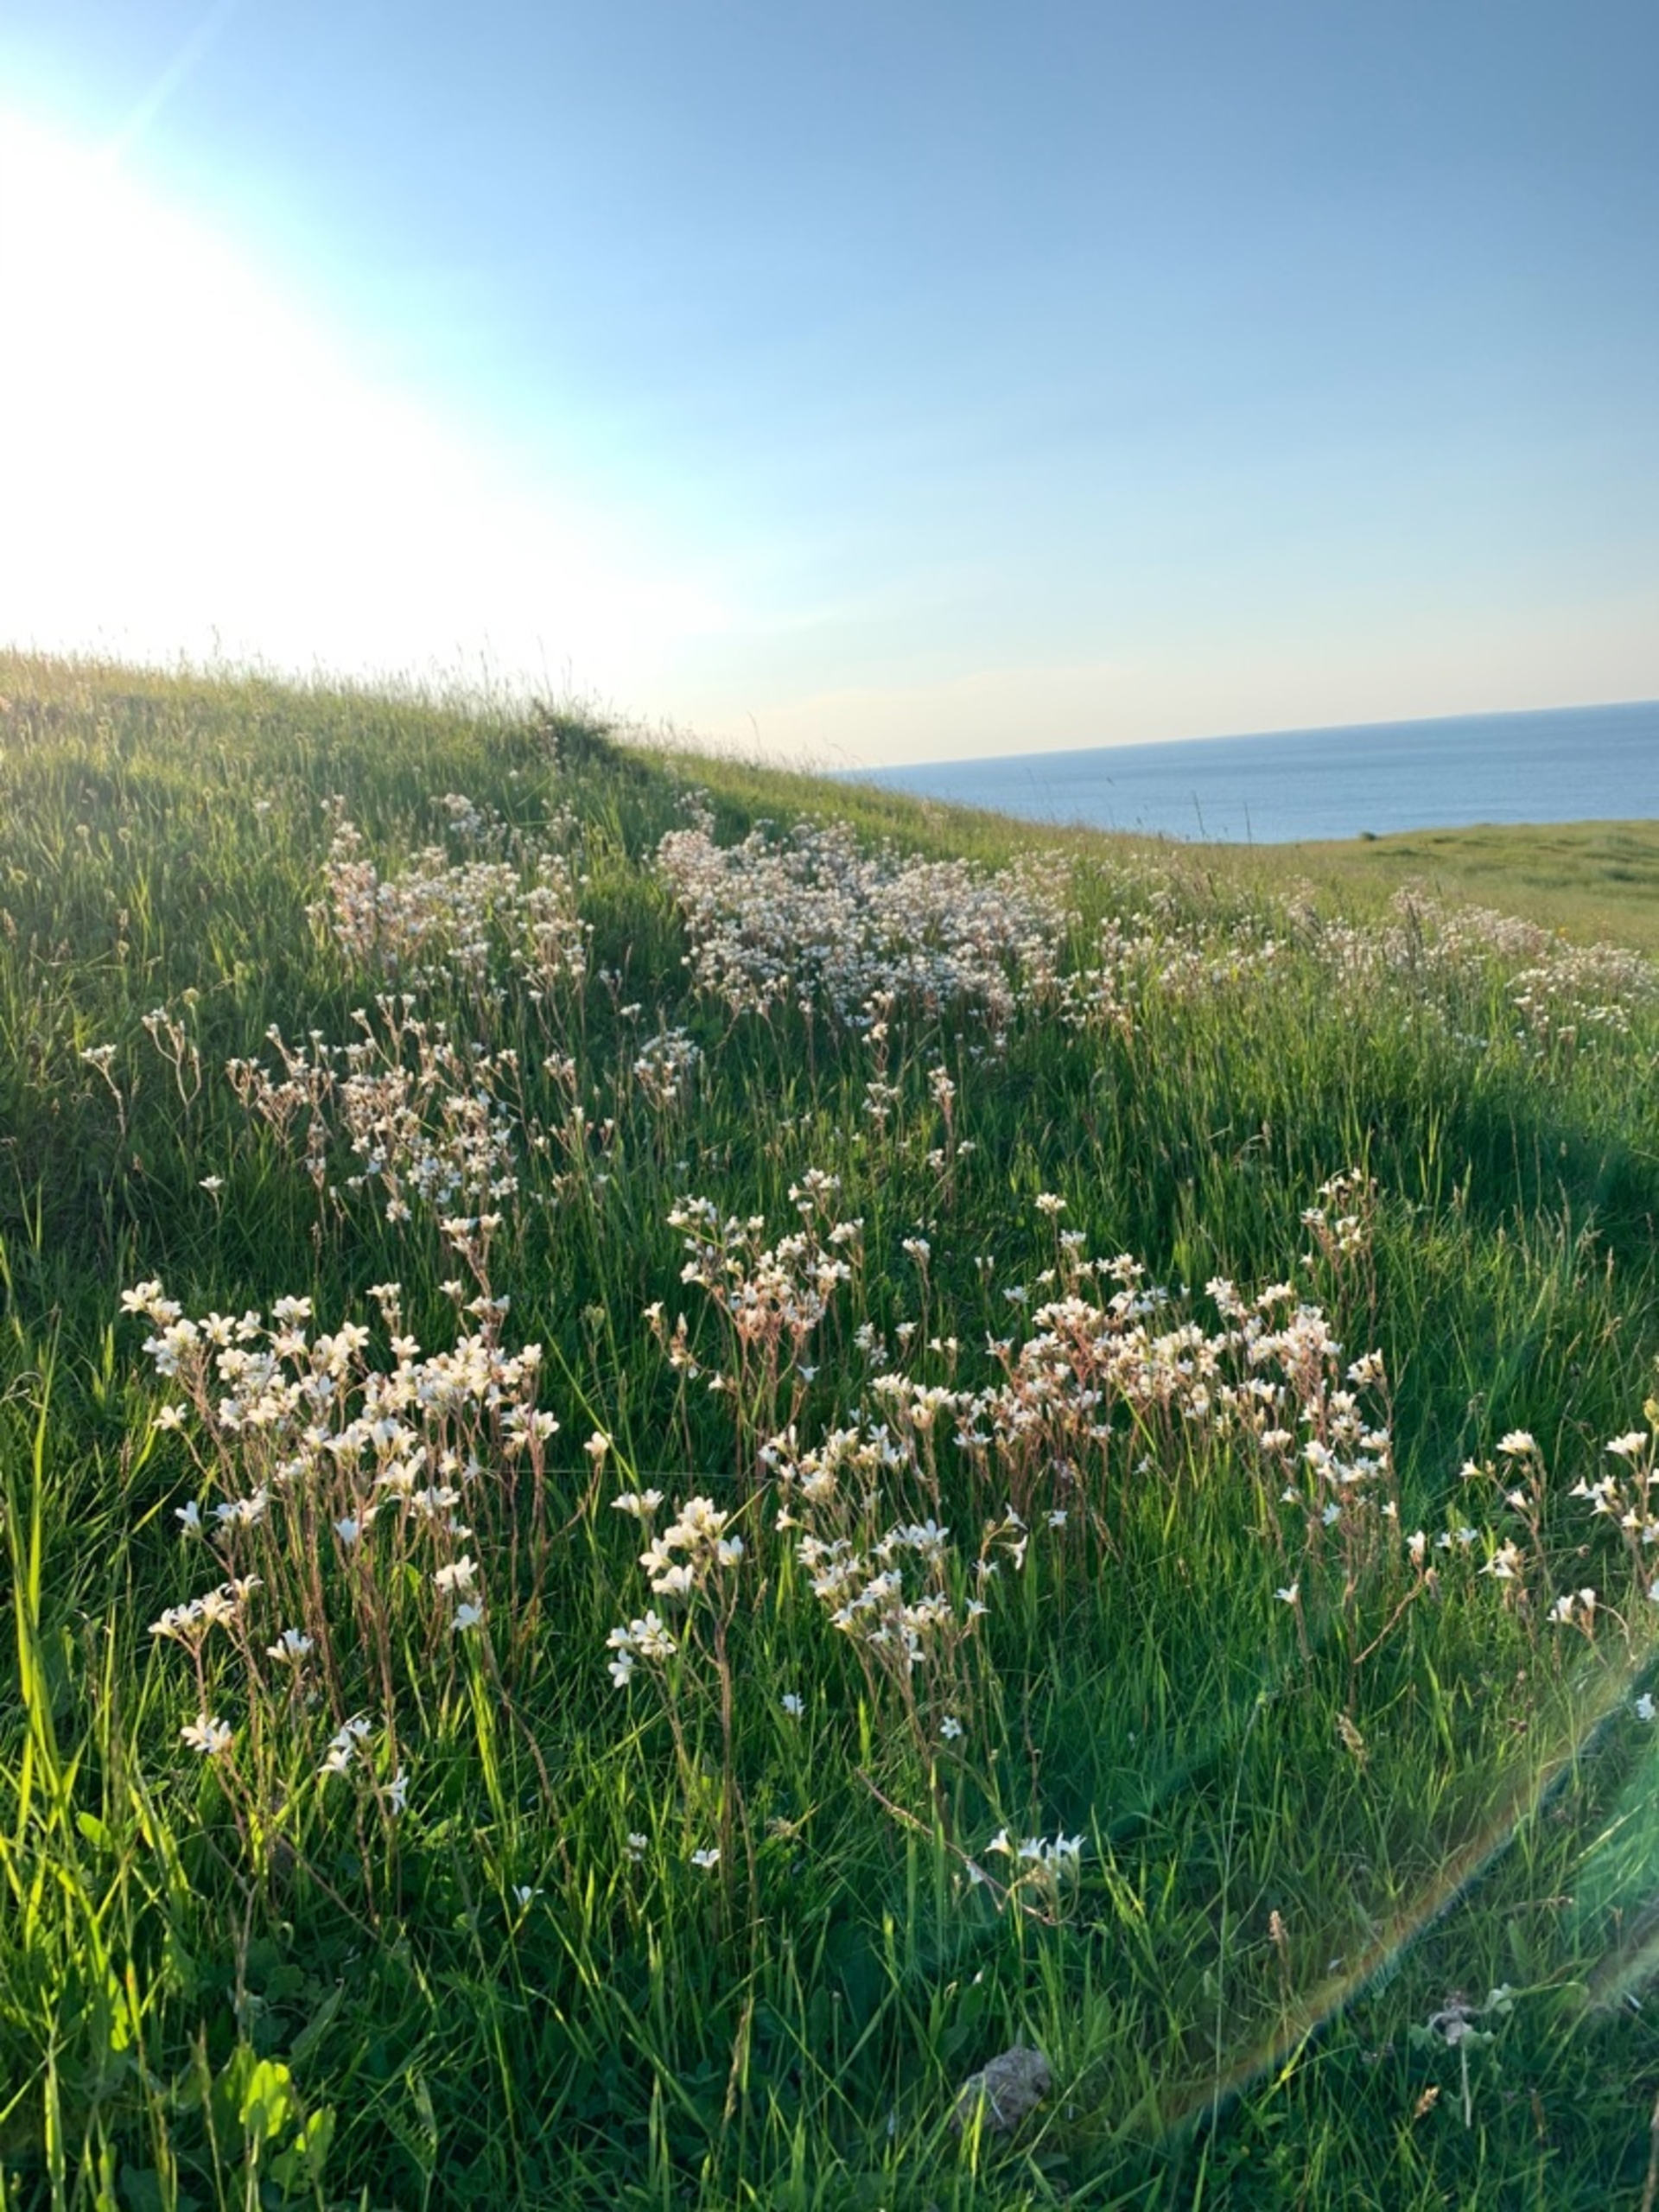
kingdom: Plantae
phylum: Tracheophyta
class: Magnoliopsida
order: Saxifragales
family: Saxifragaceae
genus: Saxifraga
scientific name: Saxifraga granulata
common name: Kornet stenbræk
